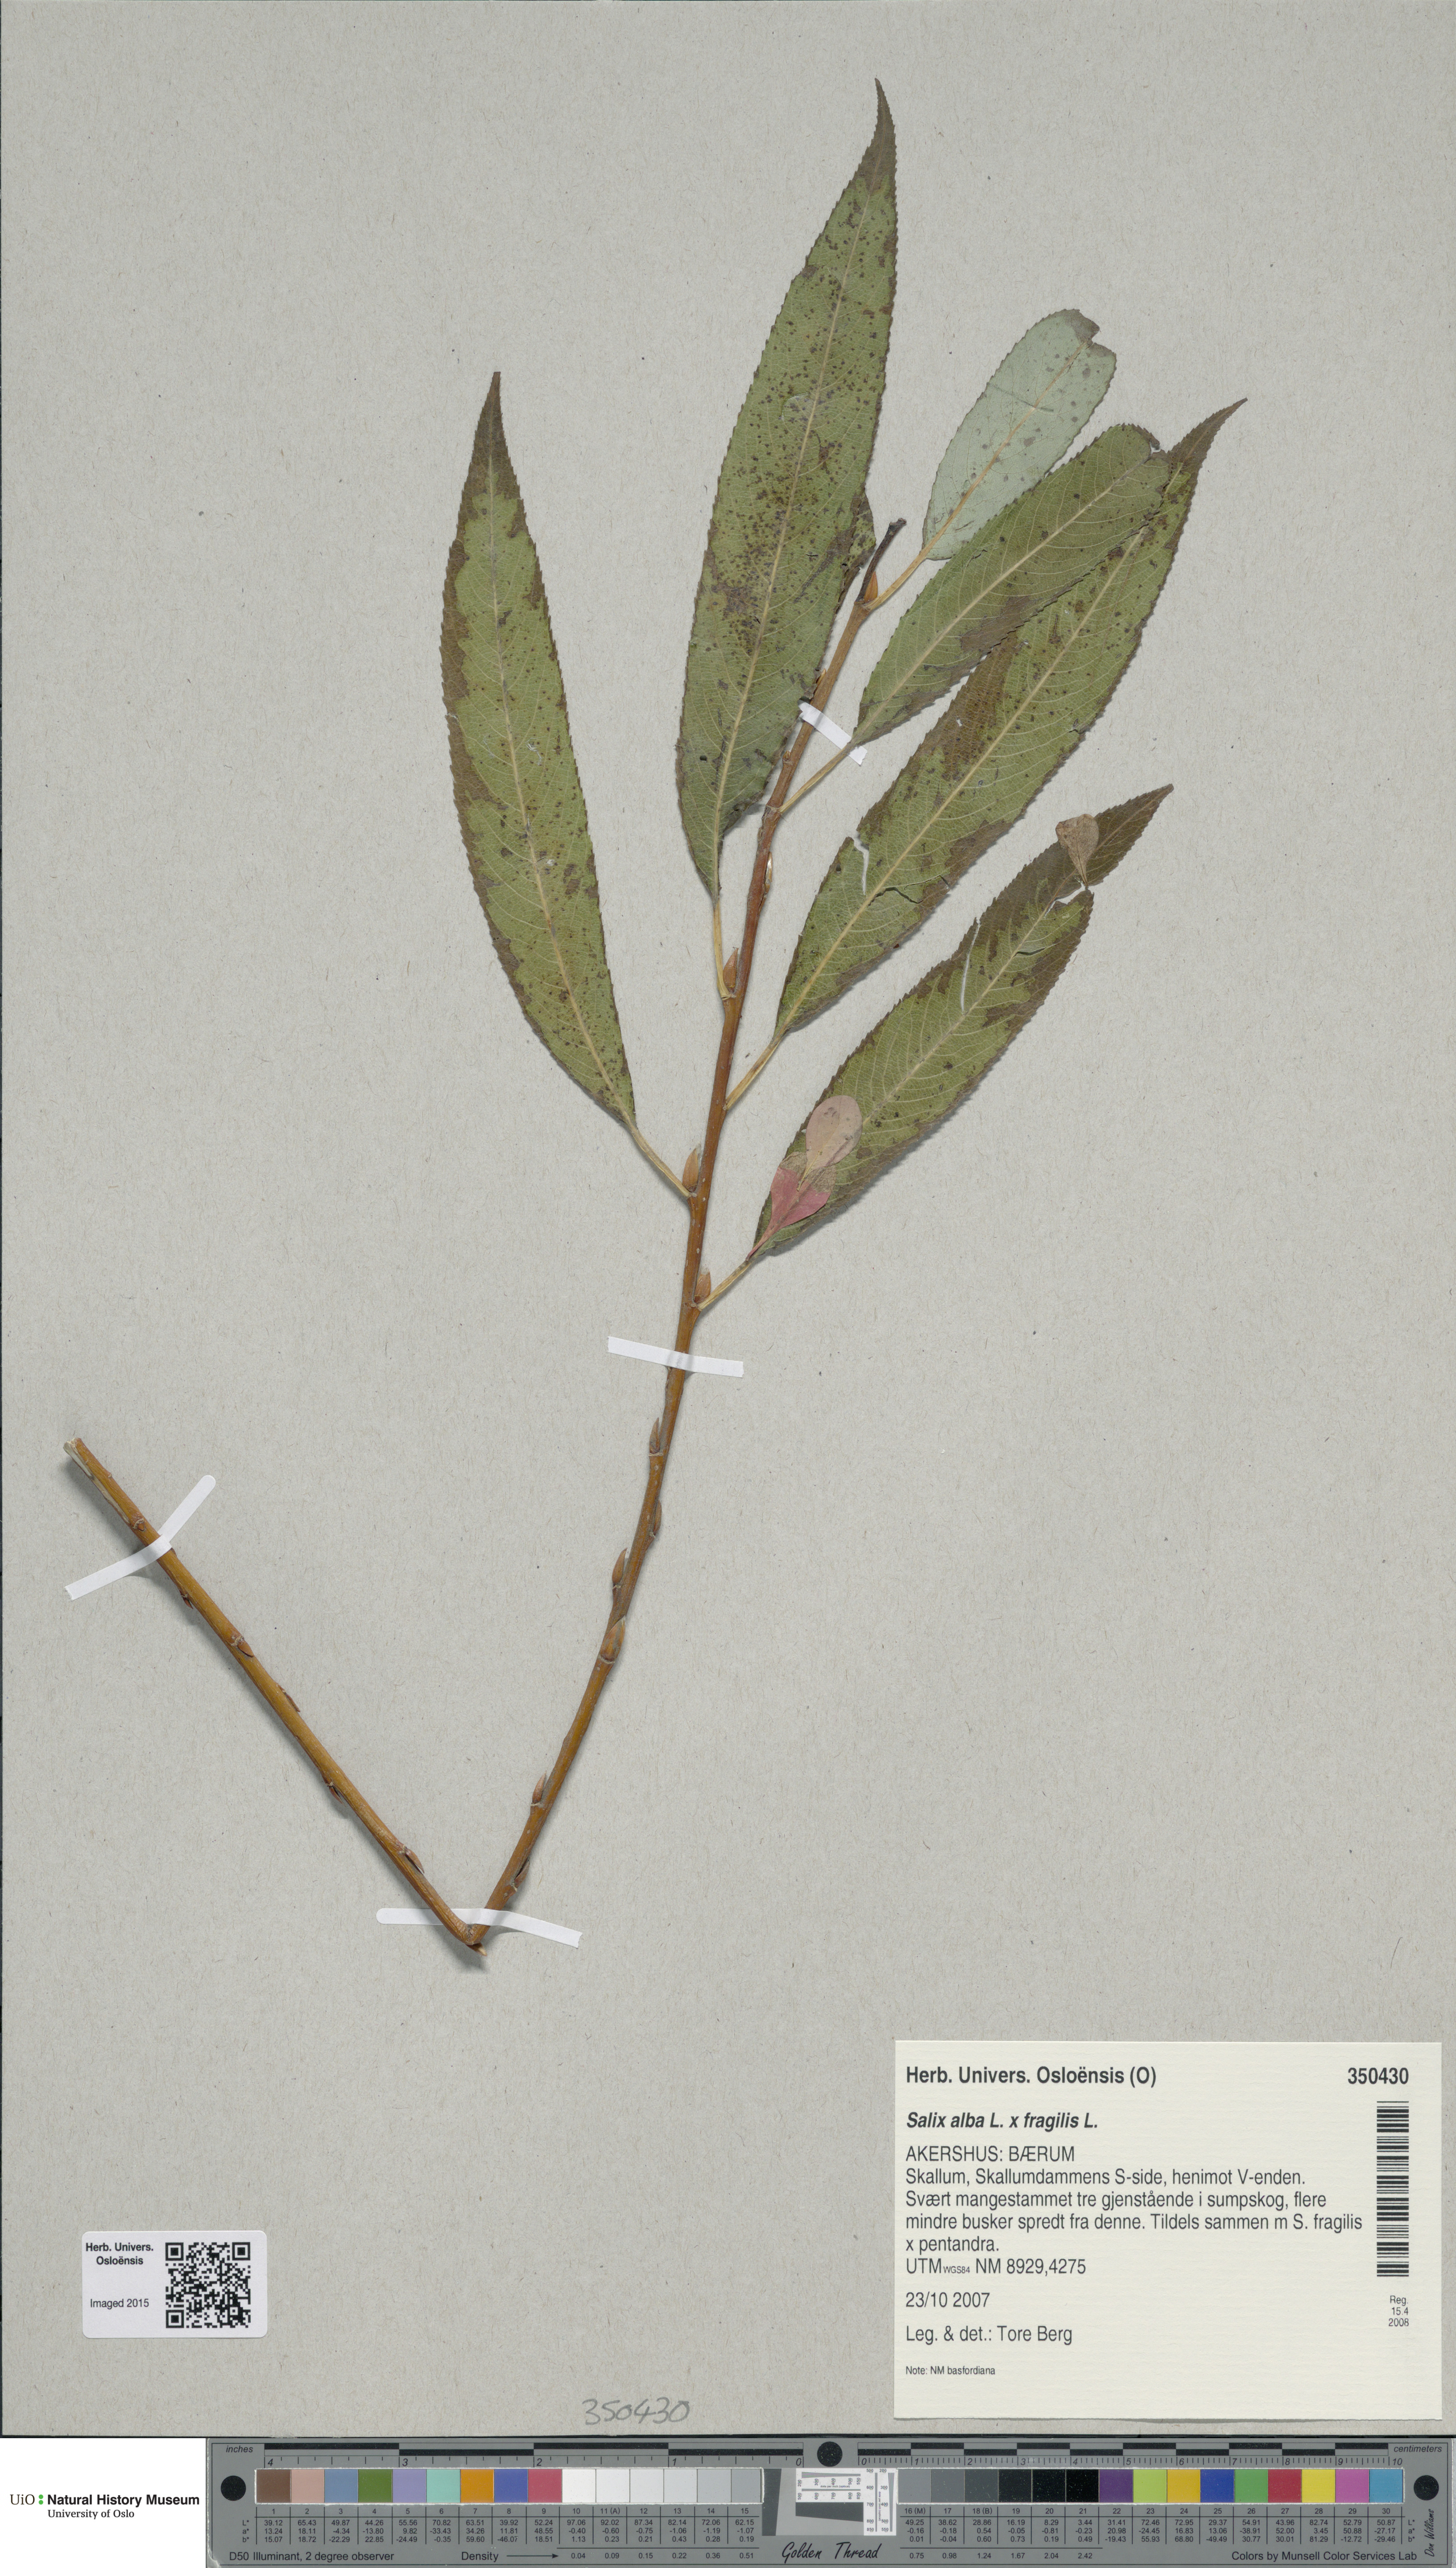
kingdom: Plantae
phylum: Tracheophyta
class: Magnoliopsida
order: Malpighiales
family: Salicaceae
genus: Salix
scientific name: Salix
